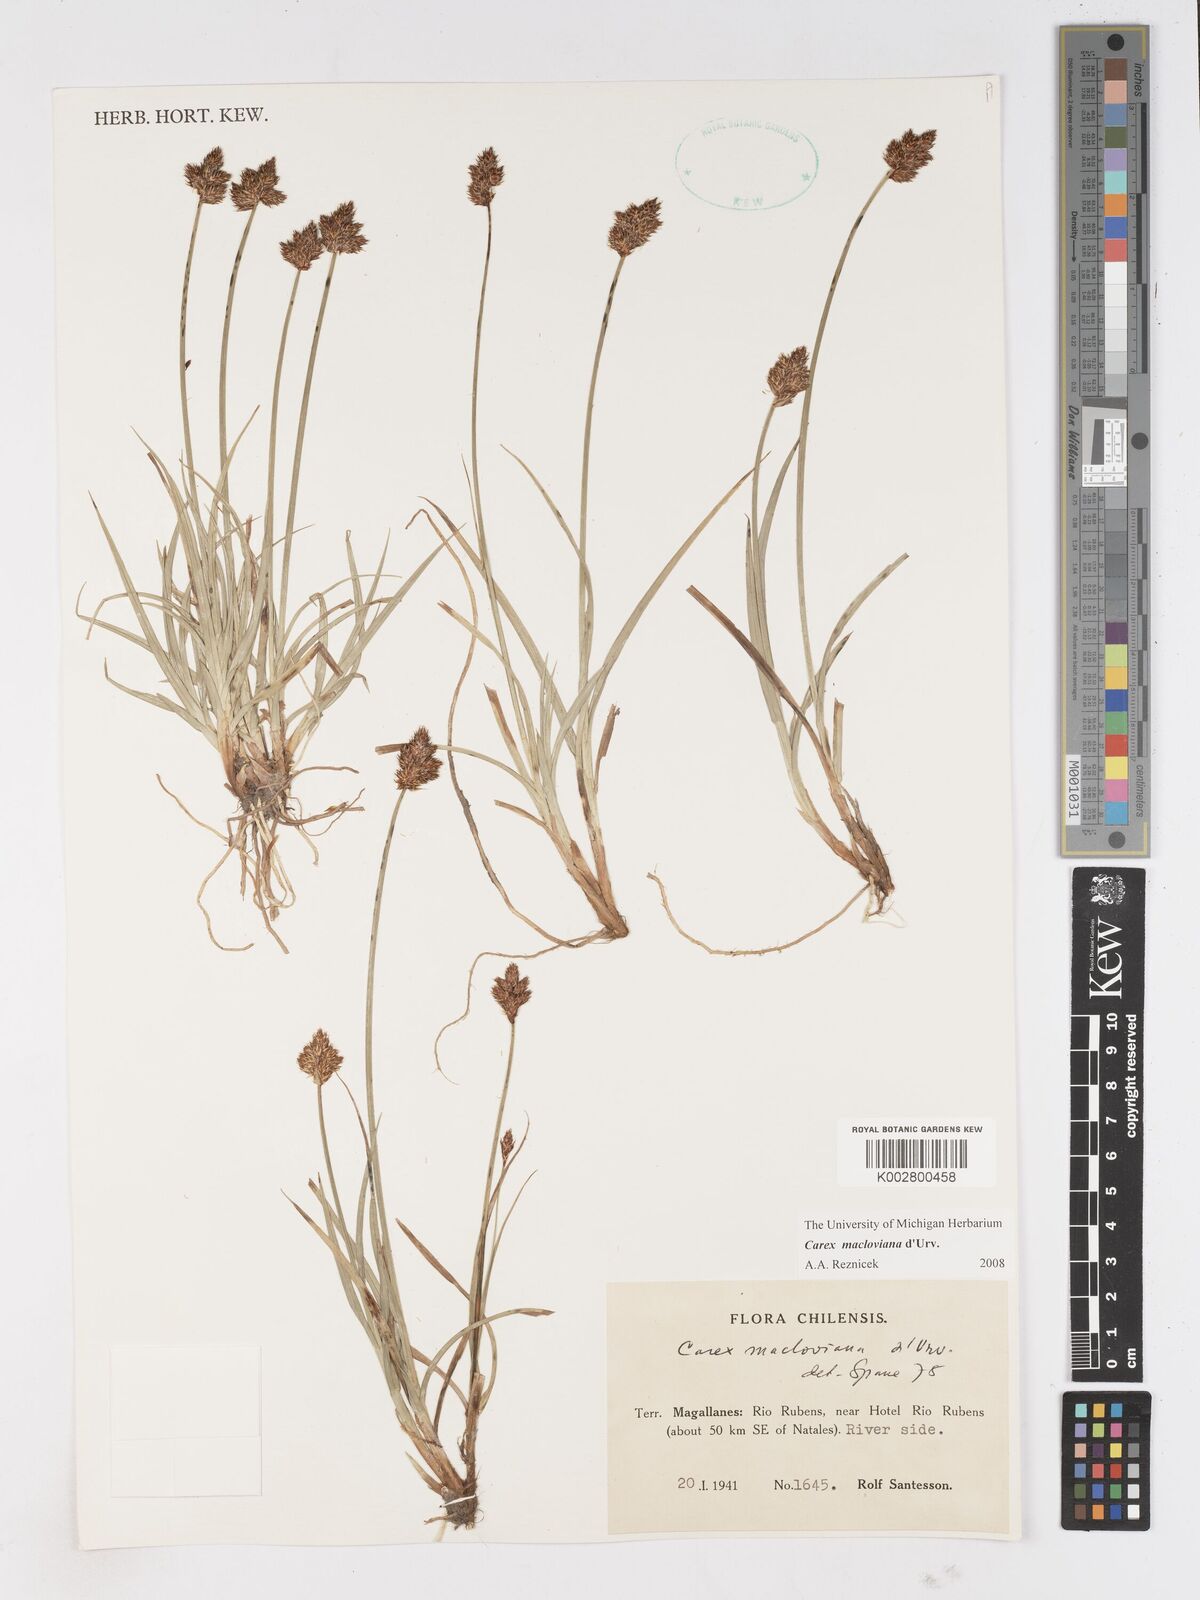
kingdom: Plantae
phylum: Tracheophyta
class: Liliopsida
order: Poales
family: Cyperaceae
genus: Carex
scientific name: Carex macloviana
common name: Falkland island sedge
